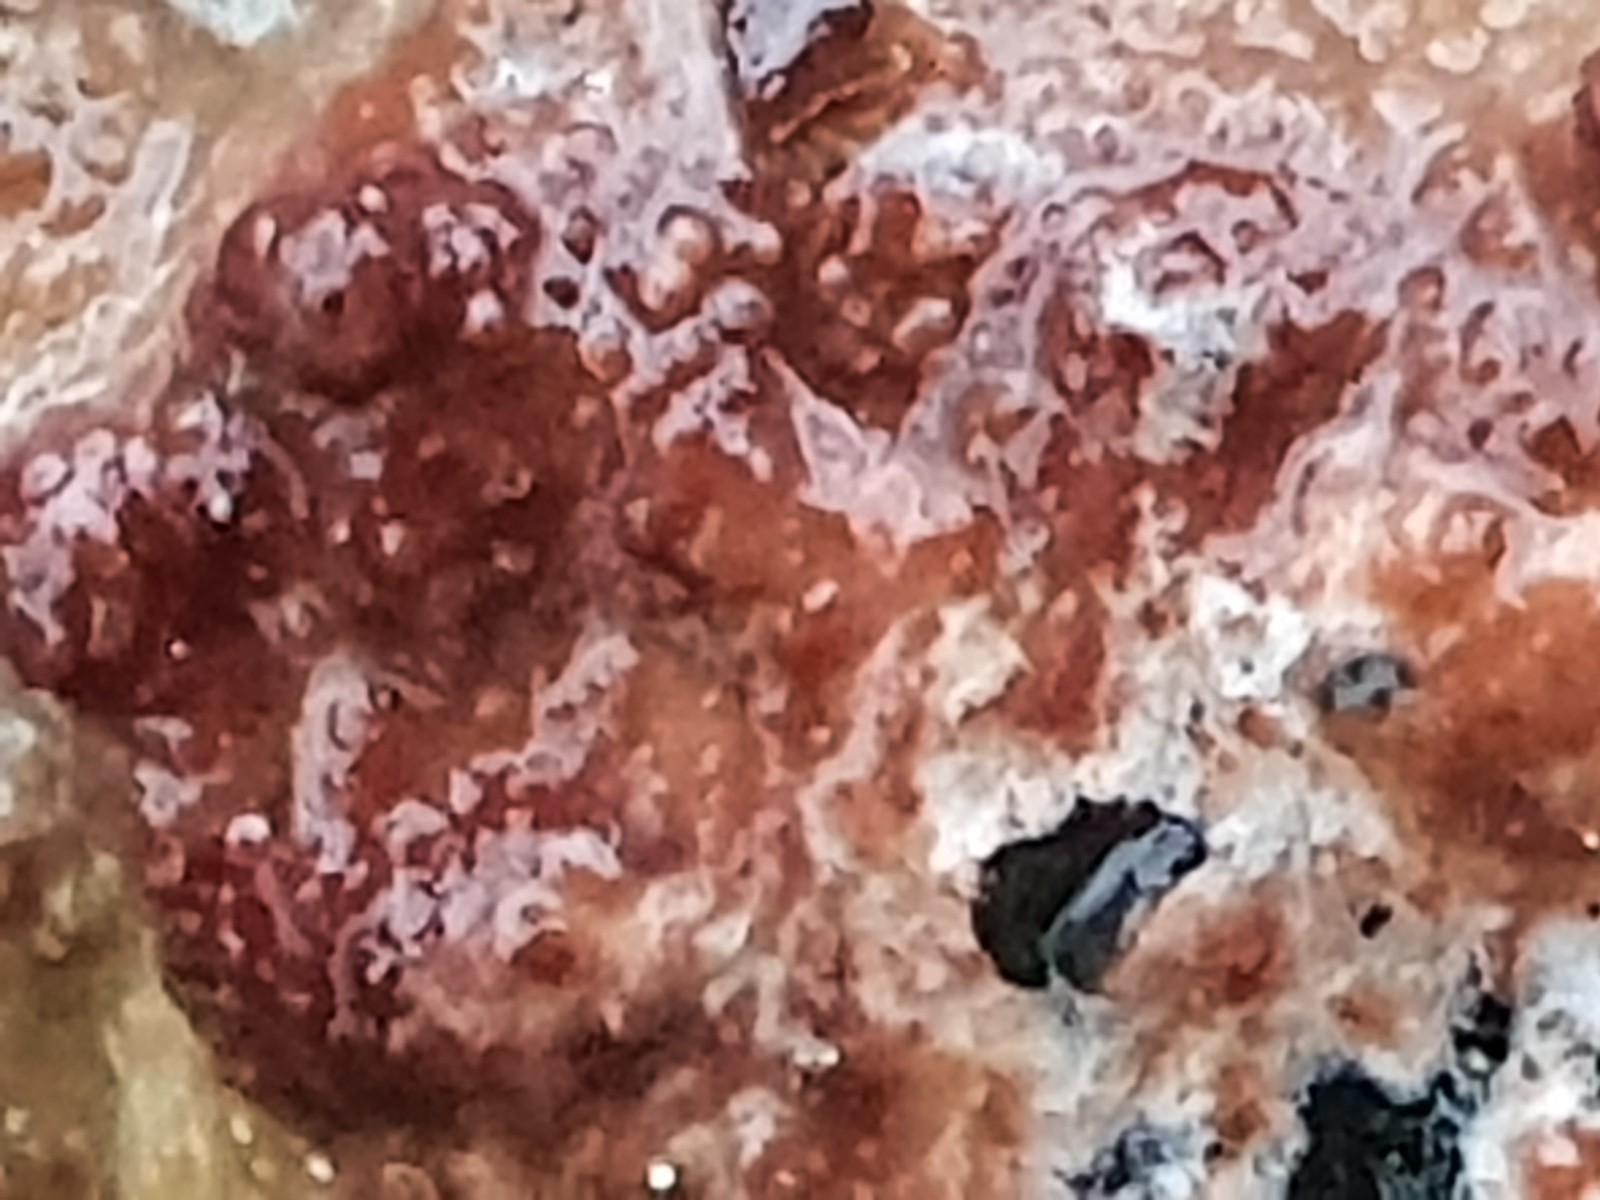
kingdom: Fungi
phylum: Basidiomycota
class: Agaricomycetes
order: Polyporales
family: Meruliaceae
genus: Phlebiodontia
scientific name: Phlebiodontia subochracea
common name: svovl-åresvamp
